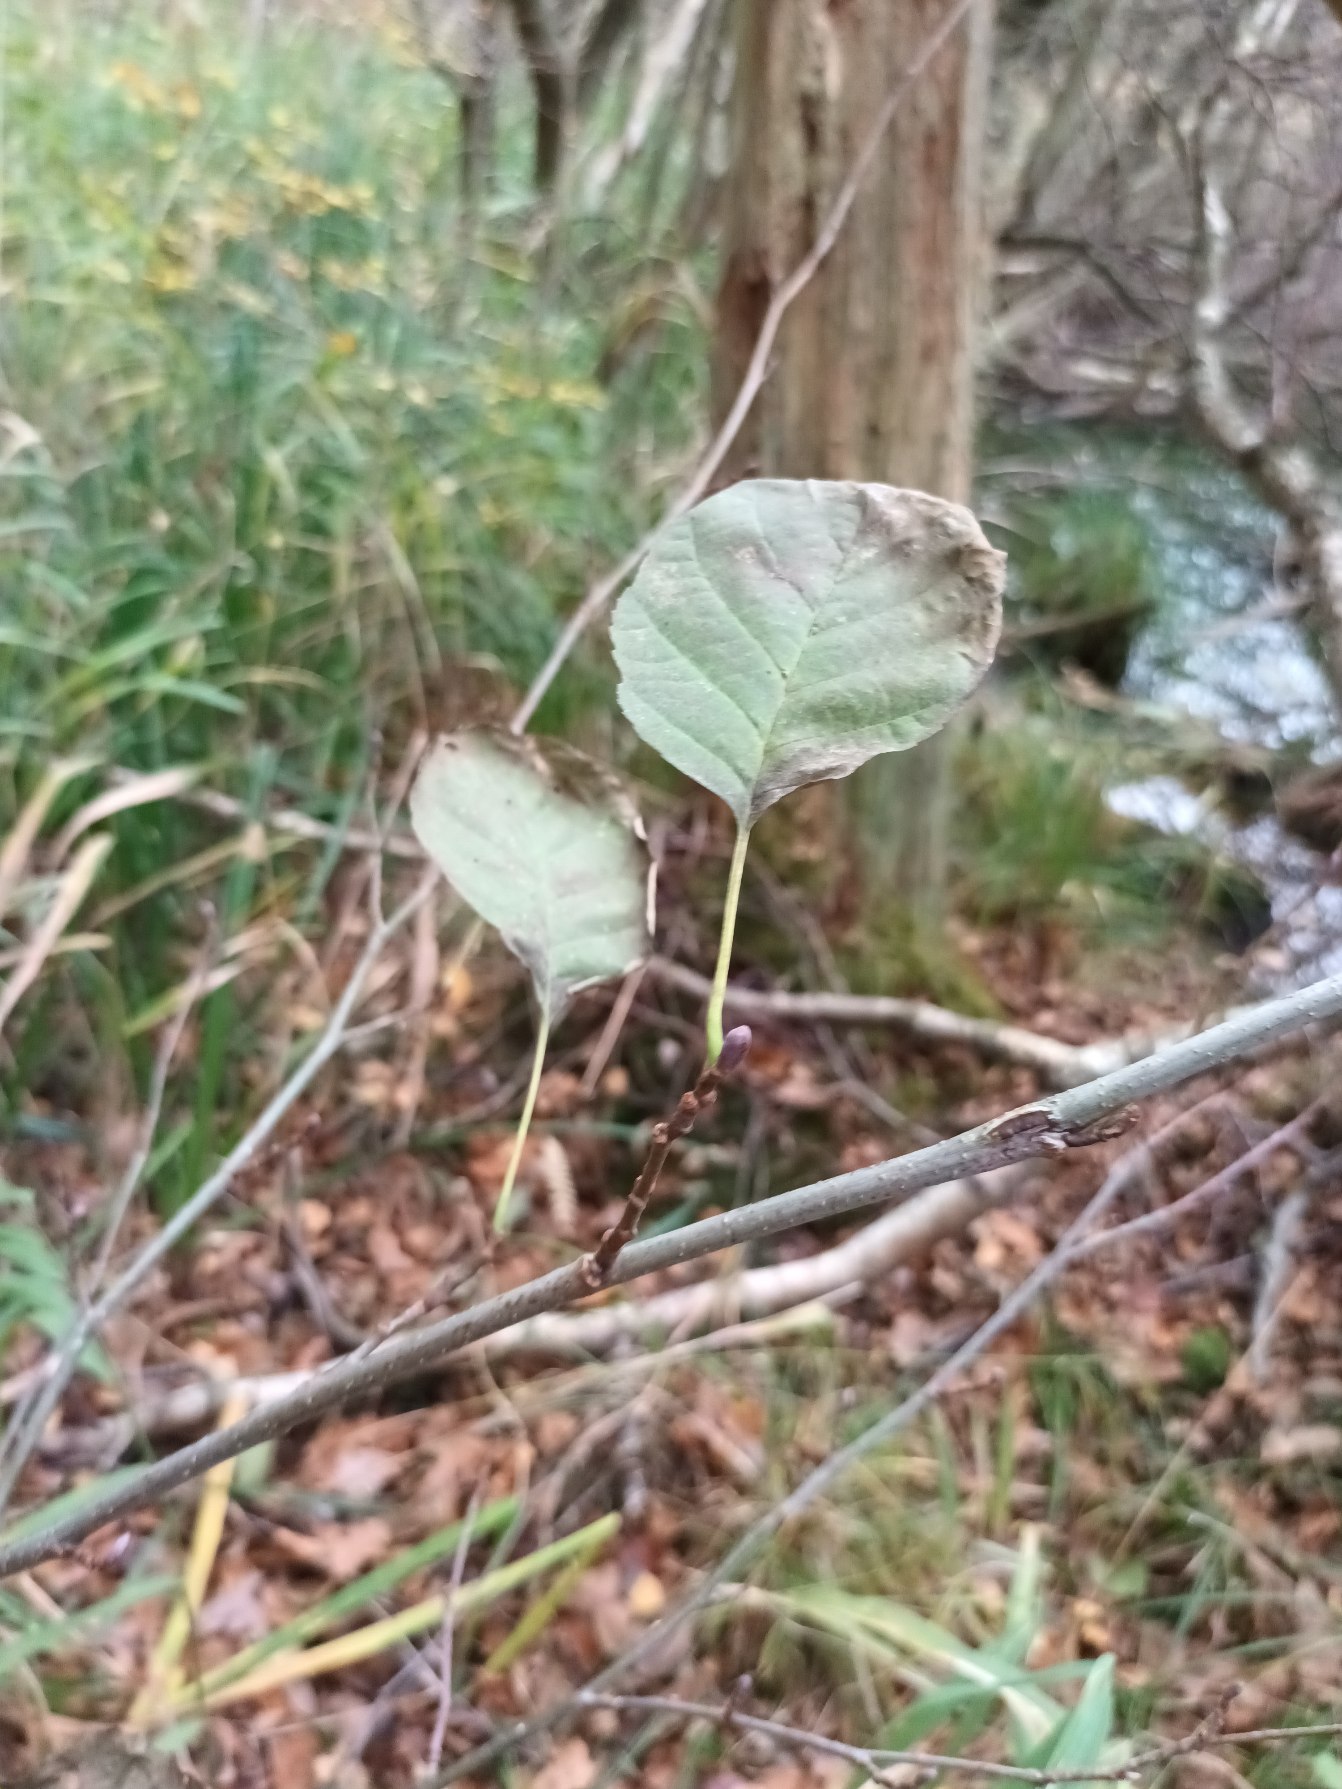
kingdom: Plantae
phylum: Tracheophyta
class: Magnoliopsida
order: Fagales
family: Betulaceae
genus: Alnus
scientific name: Alnus glutinosa
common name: Rød-el
